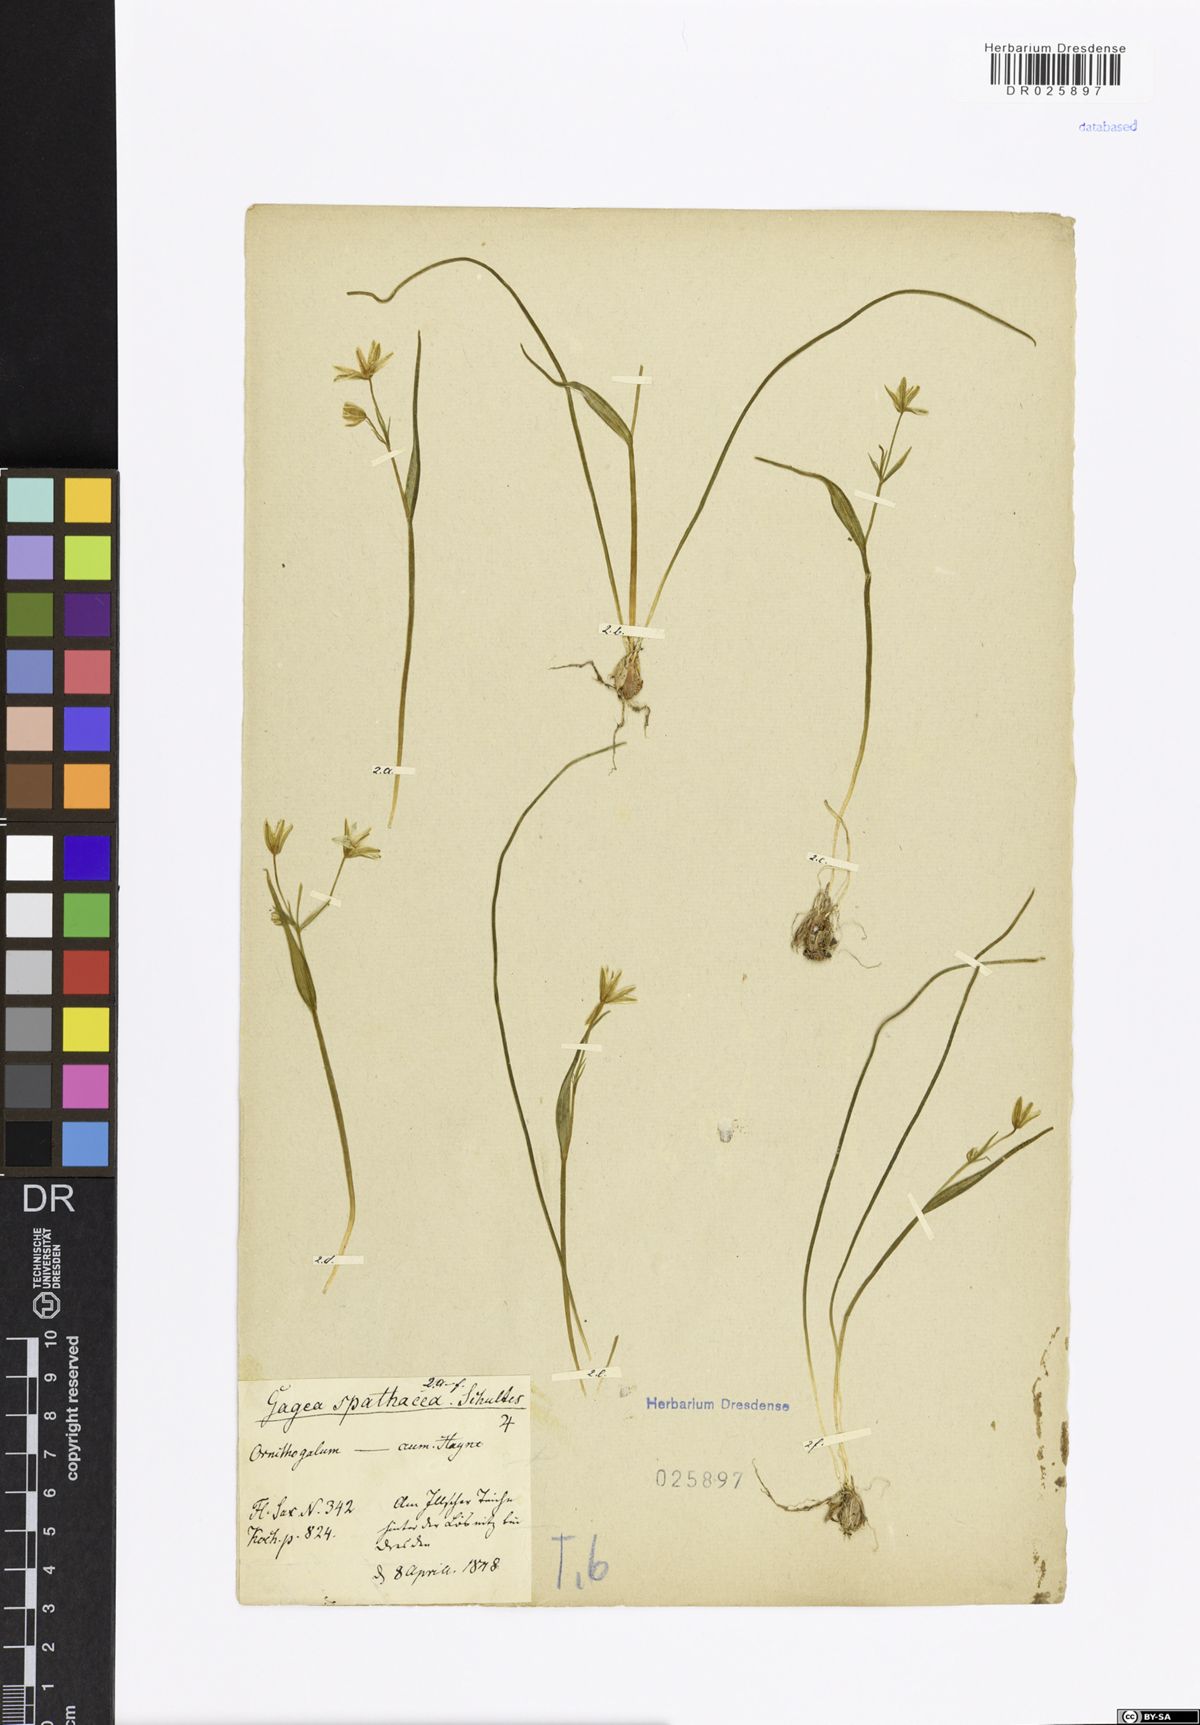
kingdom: Plantae
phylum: Tracheophyta
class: Liliopsida
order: Liliales
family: Liliaceae
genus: Gagea
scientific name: Gagea spathacea
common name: Belgian gagea
